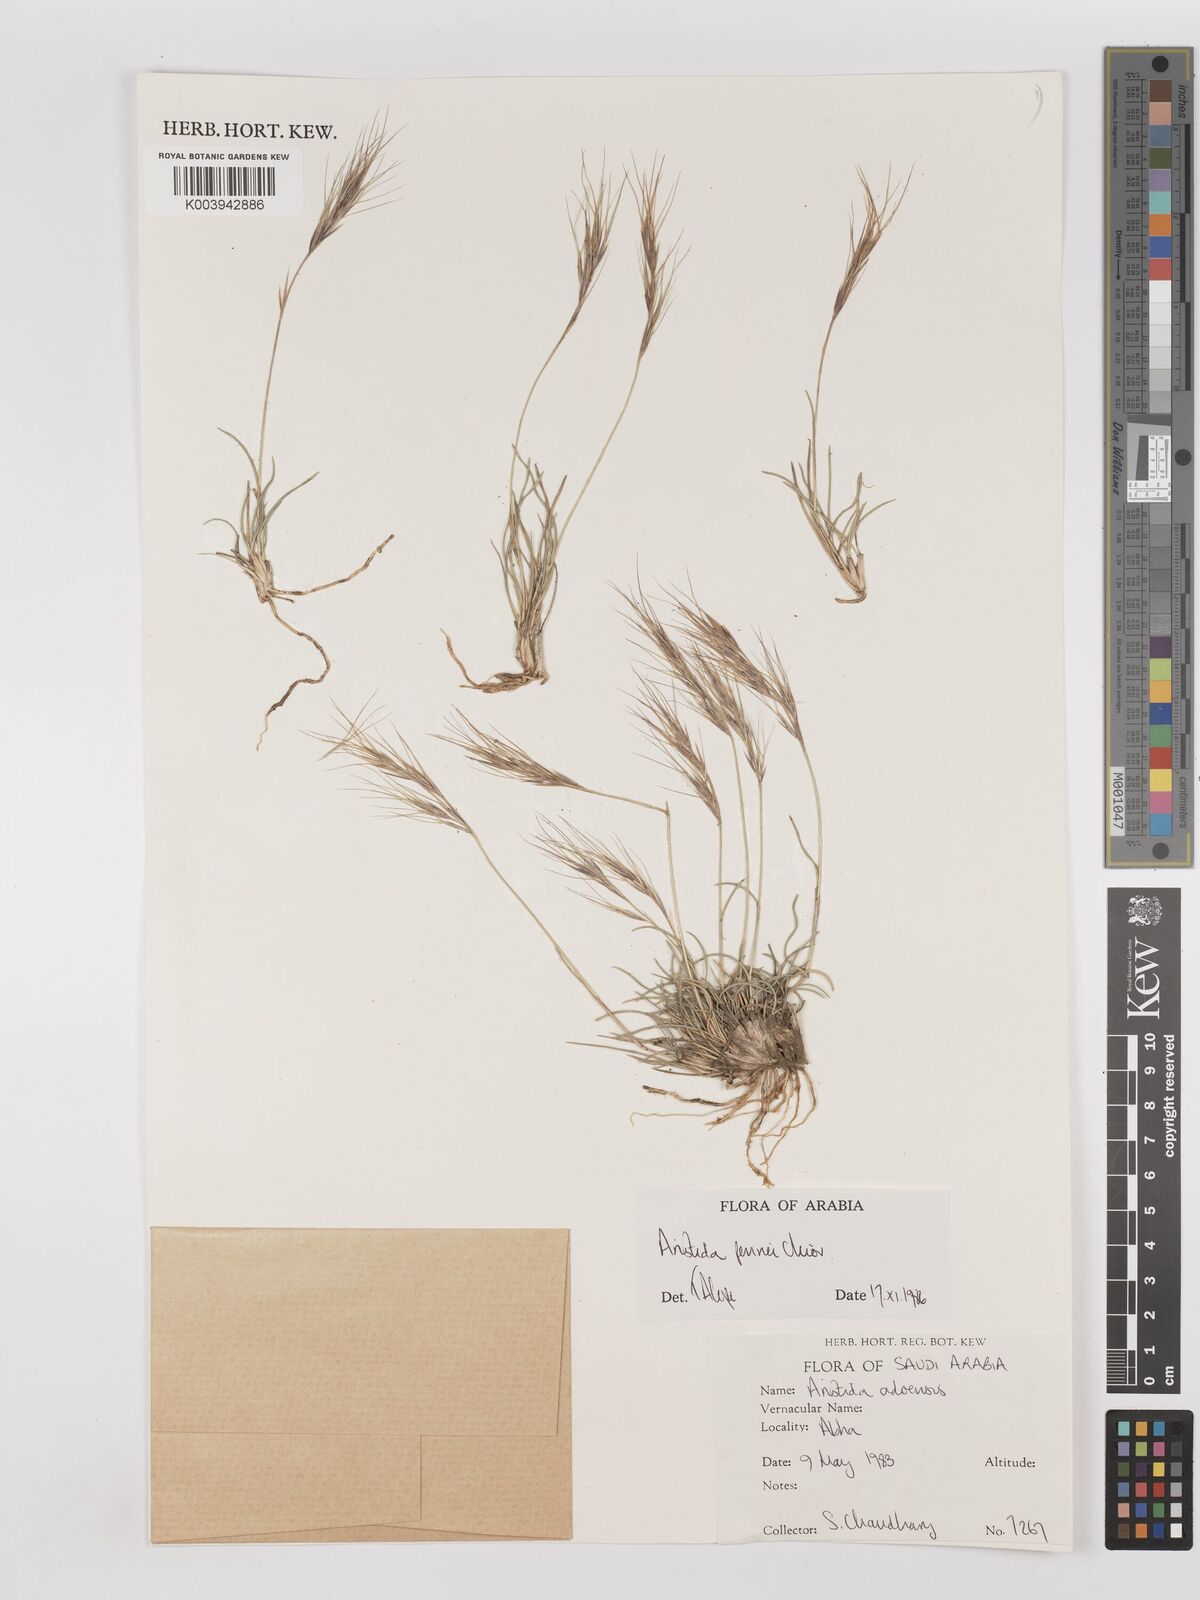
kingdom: Plantae
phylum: Tracheophyta
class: Liliopsida
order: Poales
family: Poaceae
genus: Aristida
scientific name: Aristida pennei
